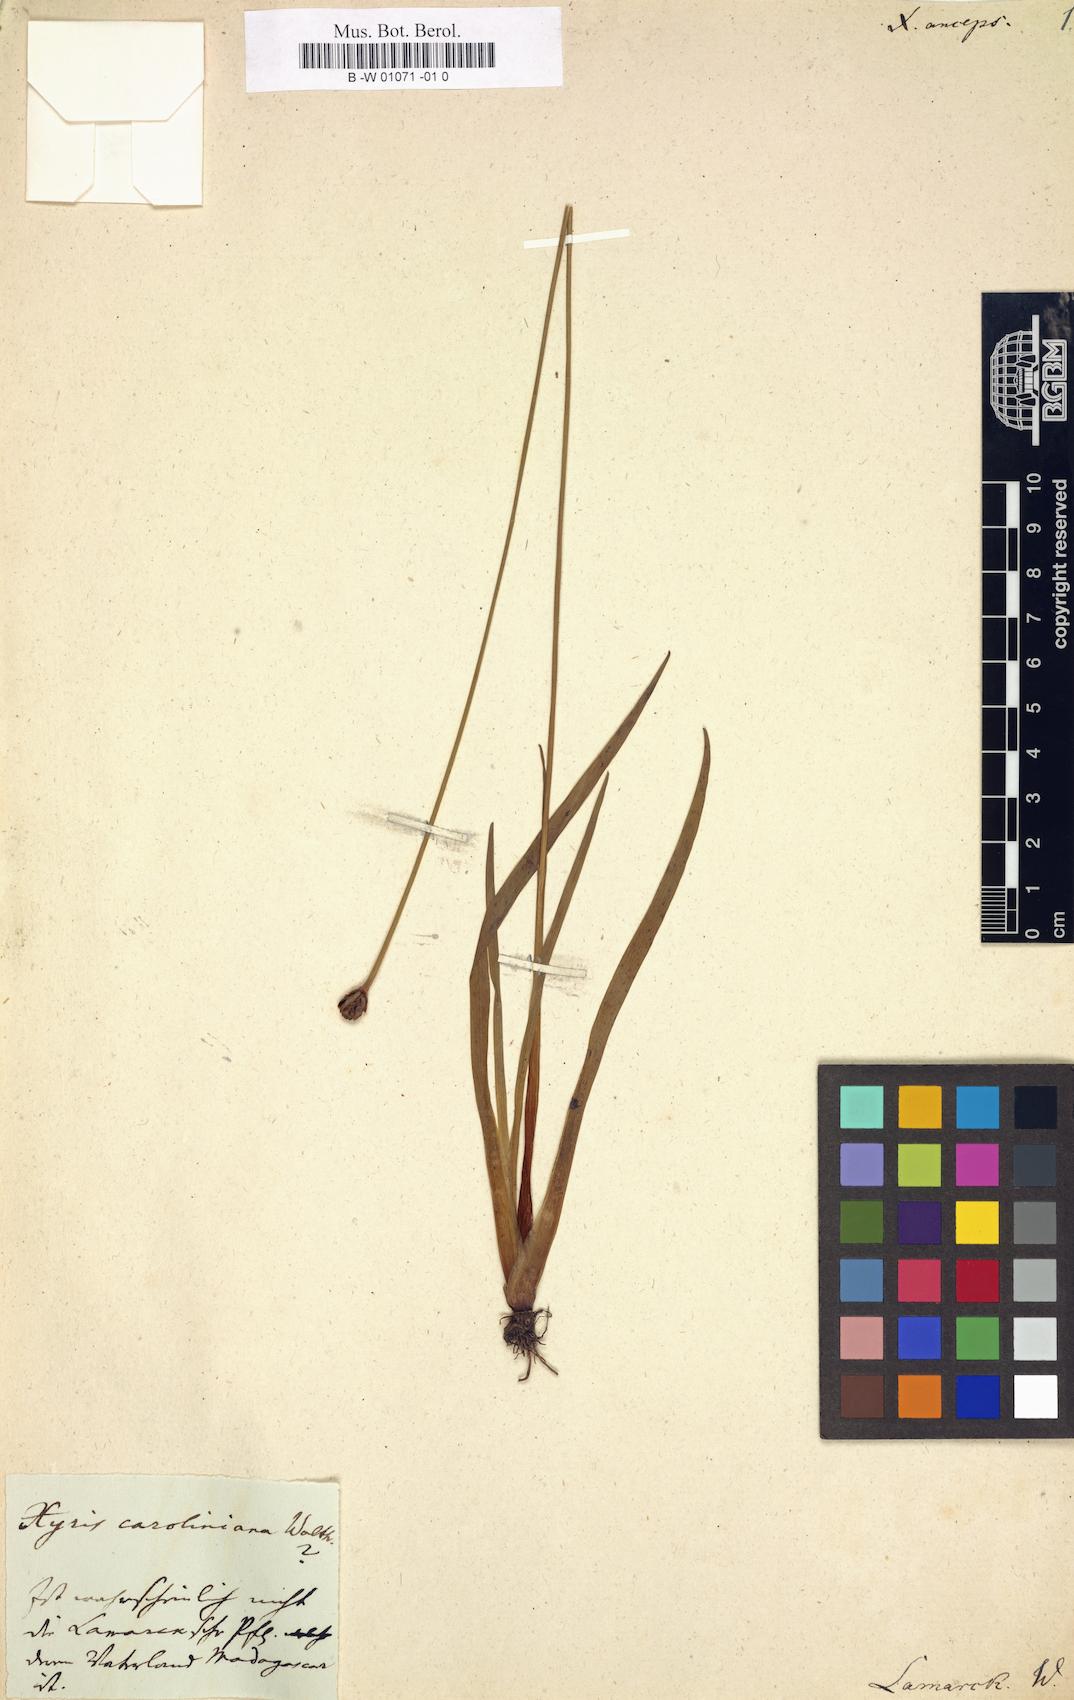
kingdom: Plantae
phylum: Tracheophyta
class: Liliopsida
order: Poales
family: Xyridaceae
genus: Xyris
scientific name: Xyris anceps
